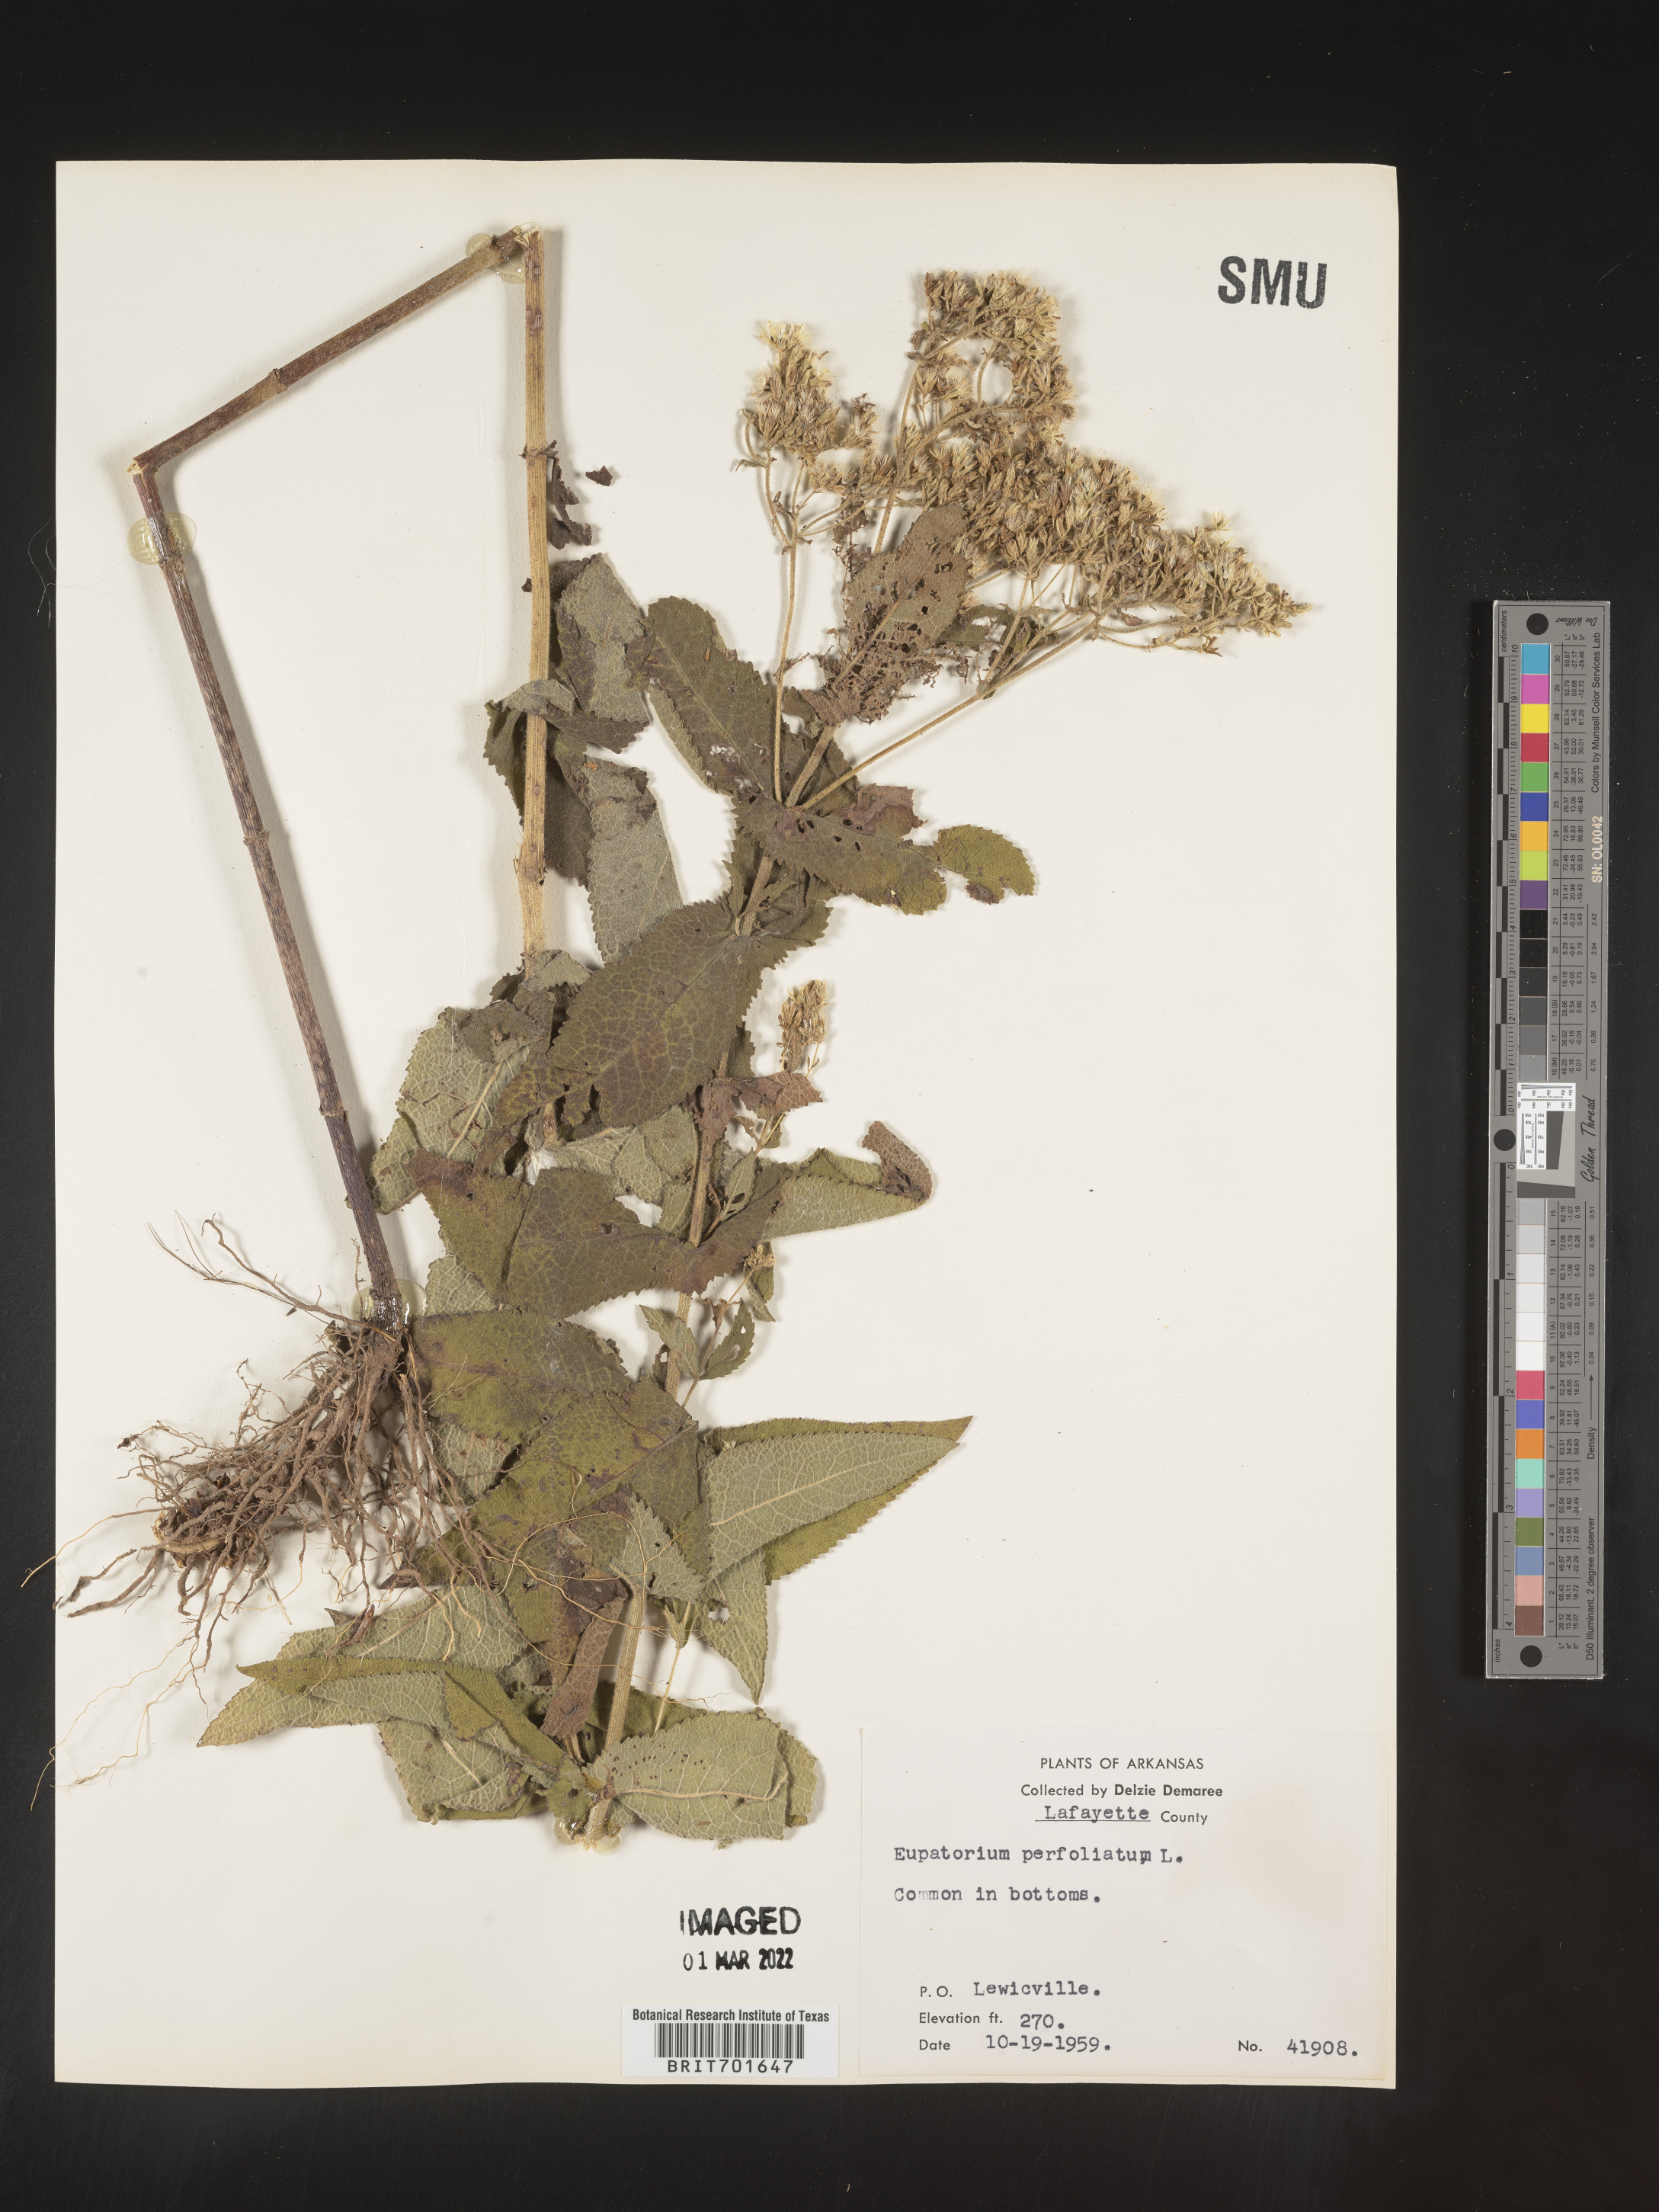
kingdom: Plantae
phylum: Tracheophyta
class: Magnoliopsida
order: Asterales
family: Asteraceae
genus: Eupatorium
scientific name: Eupatorium perfoliatum
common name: Boneset
